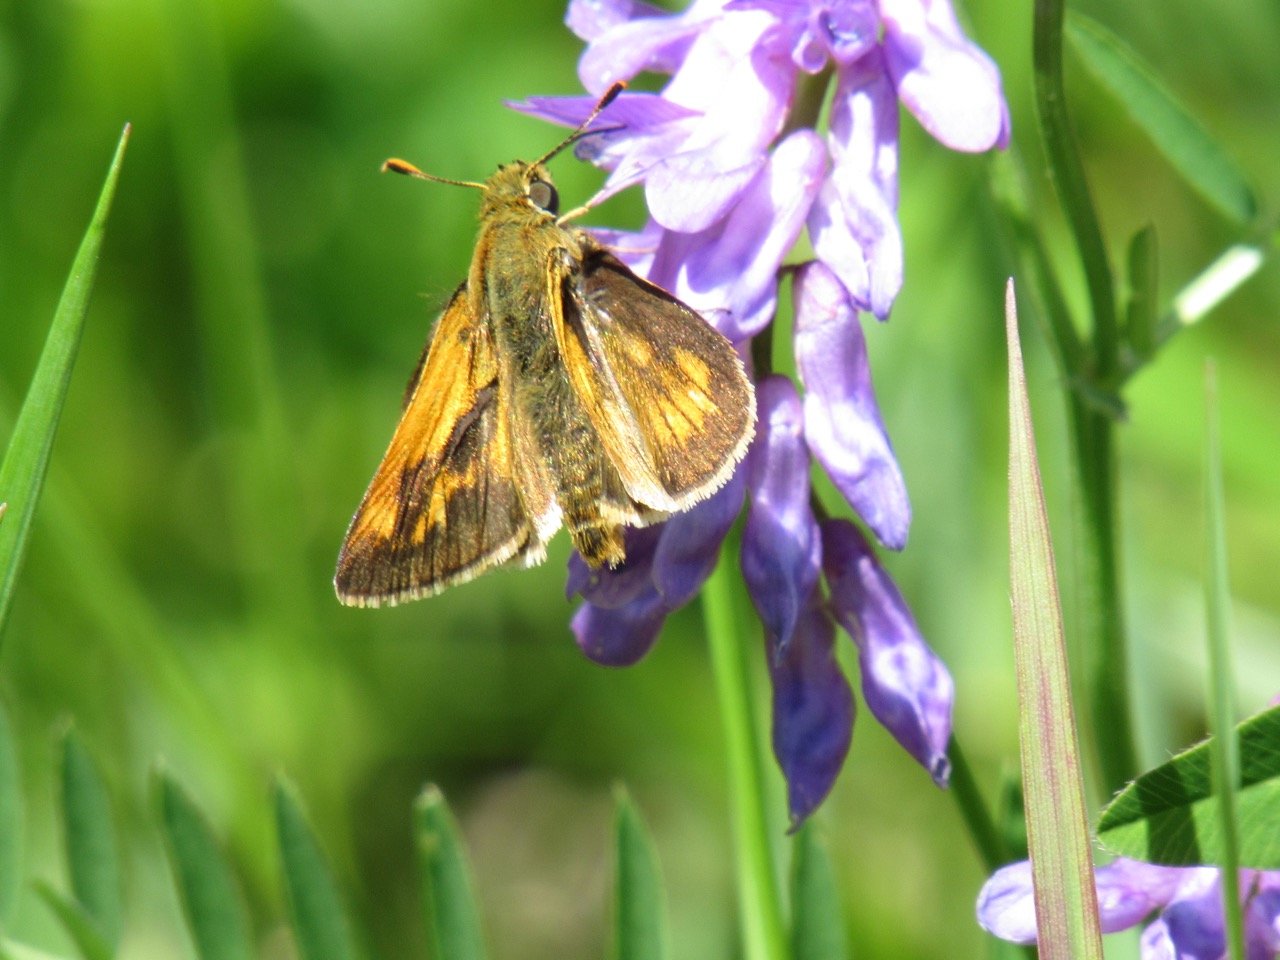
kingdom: Animalia
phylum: Arthropoda
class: Insecta
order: Lepidoptera
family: Hesperiidae
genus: Polites
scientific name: Polites
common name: Long Dash Skipper
